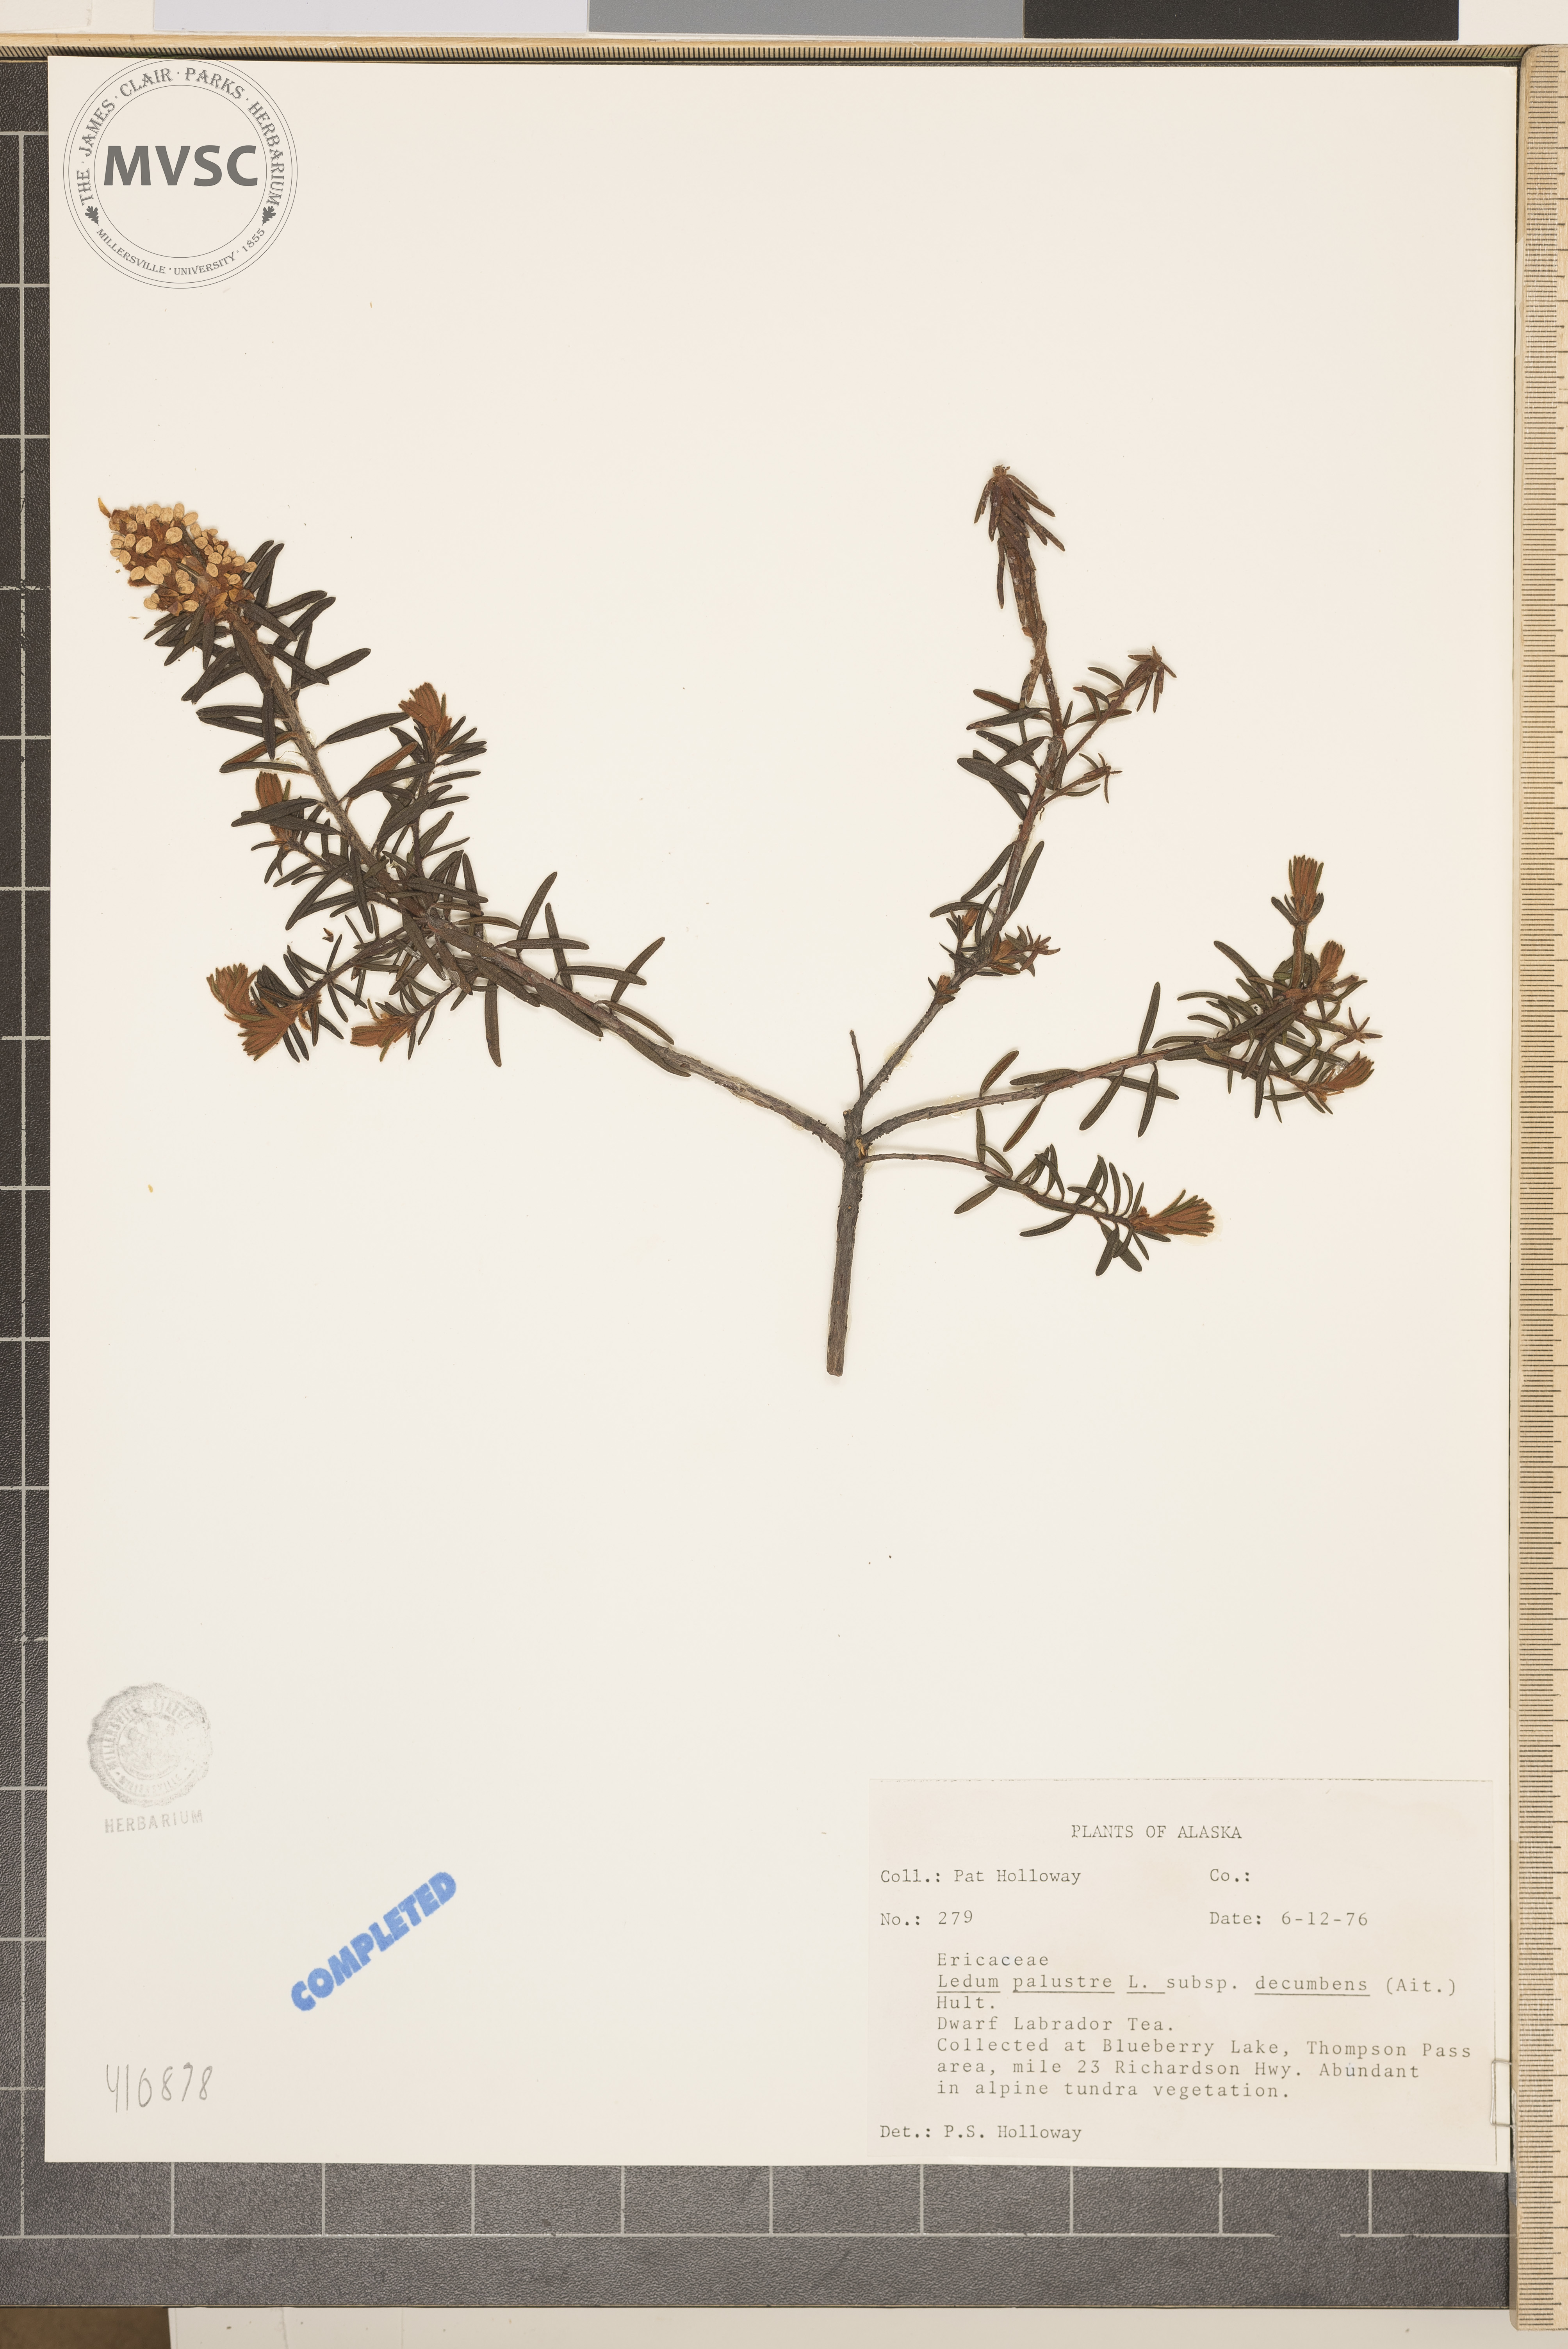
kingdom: Plantae
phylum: Tracheophyta
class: Magnoliopsida
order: Ericales
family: Ericaceae
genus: Rhododendron
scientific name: Rhododendron
